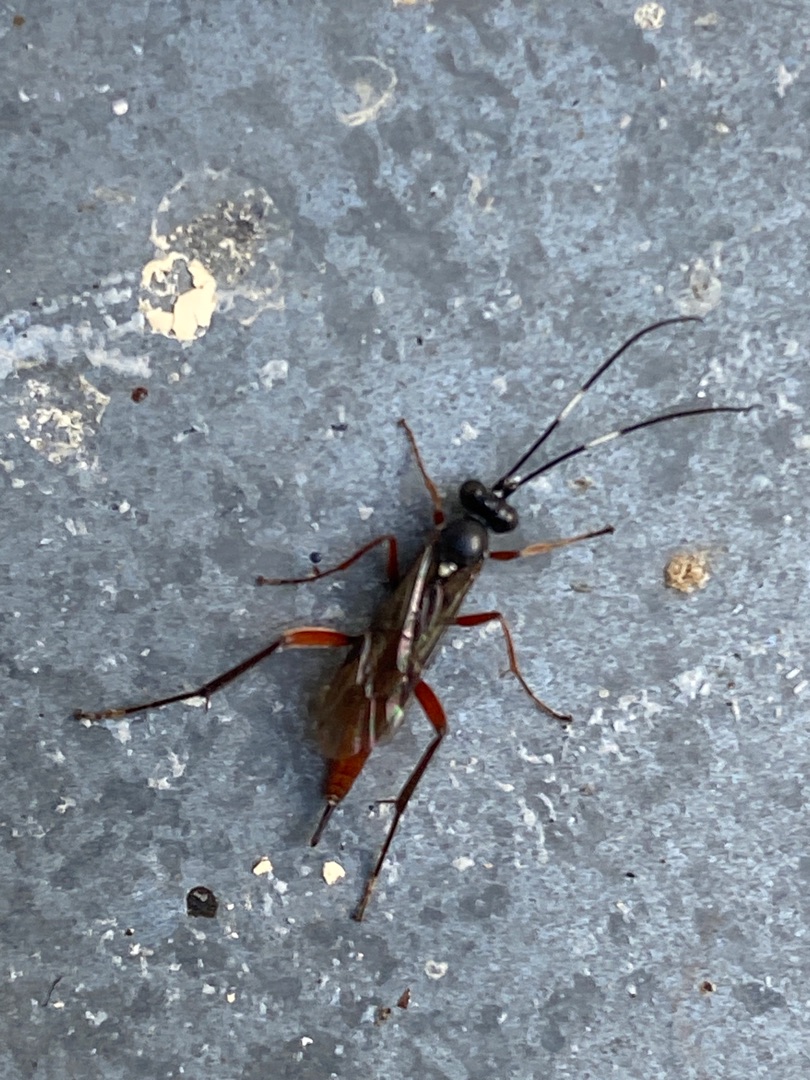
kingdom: Animalia
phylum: Arthropoda
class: Insecta
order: Hymenoptera
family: Ichneumonidae
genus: Exetastes
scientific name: Exetastes adpressorius
